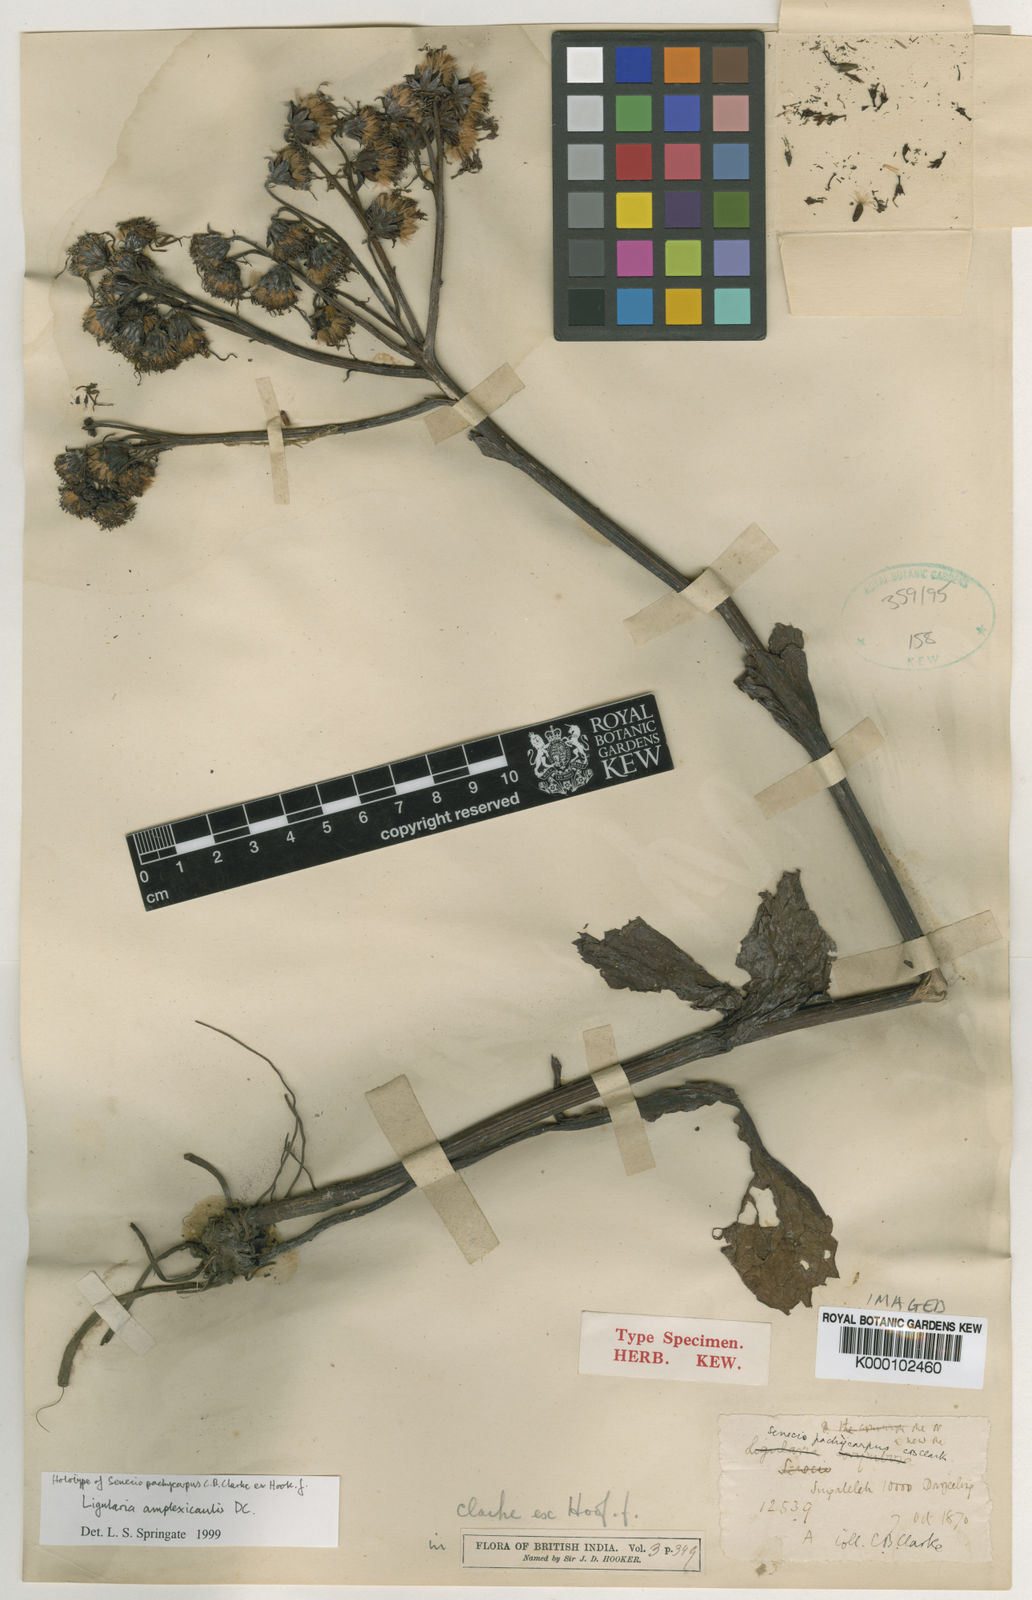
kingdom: Plantae
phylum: Tracheophyta
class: Magnoliopsida
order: Asterales
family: Asteraceae
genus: Ligularia
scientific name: Ligularia pachycarpa
